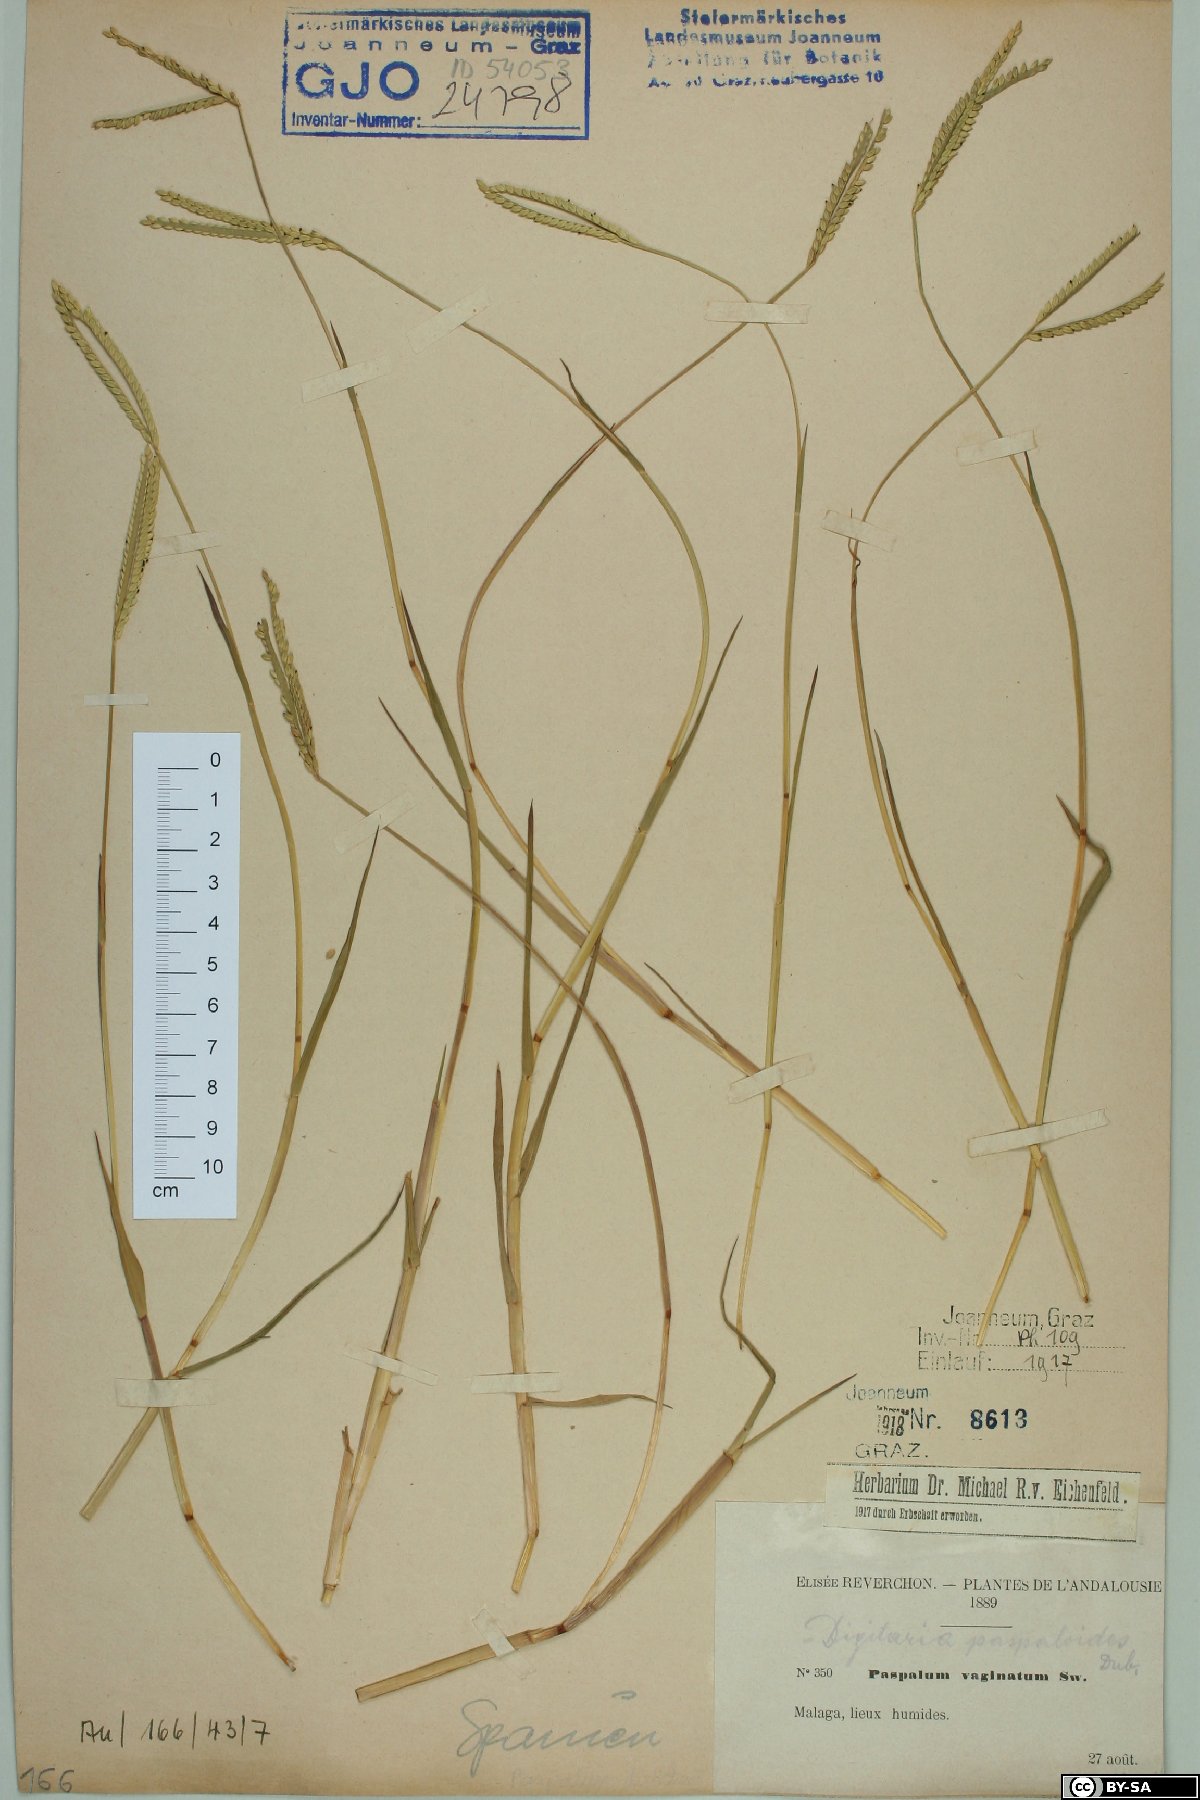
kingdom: Plantae
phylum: Tracheophyta
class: Liliopsida
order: Poales
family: Poaceae
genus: Paspalum
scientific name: Paspalum distichum
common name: Knotgrass
